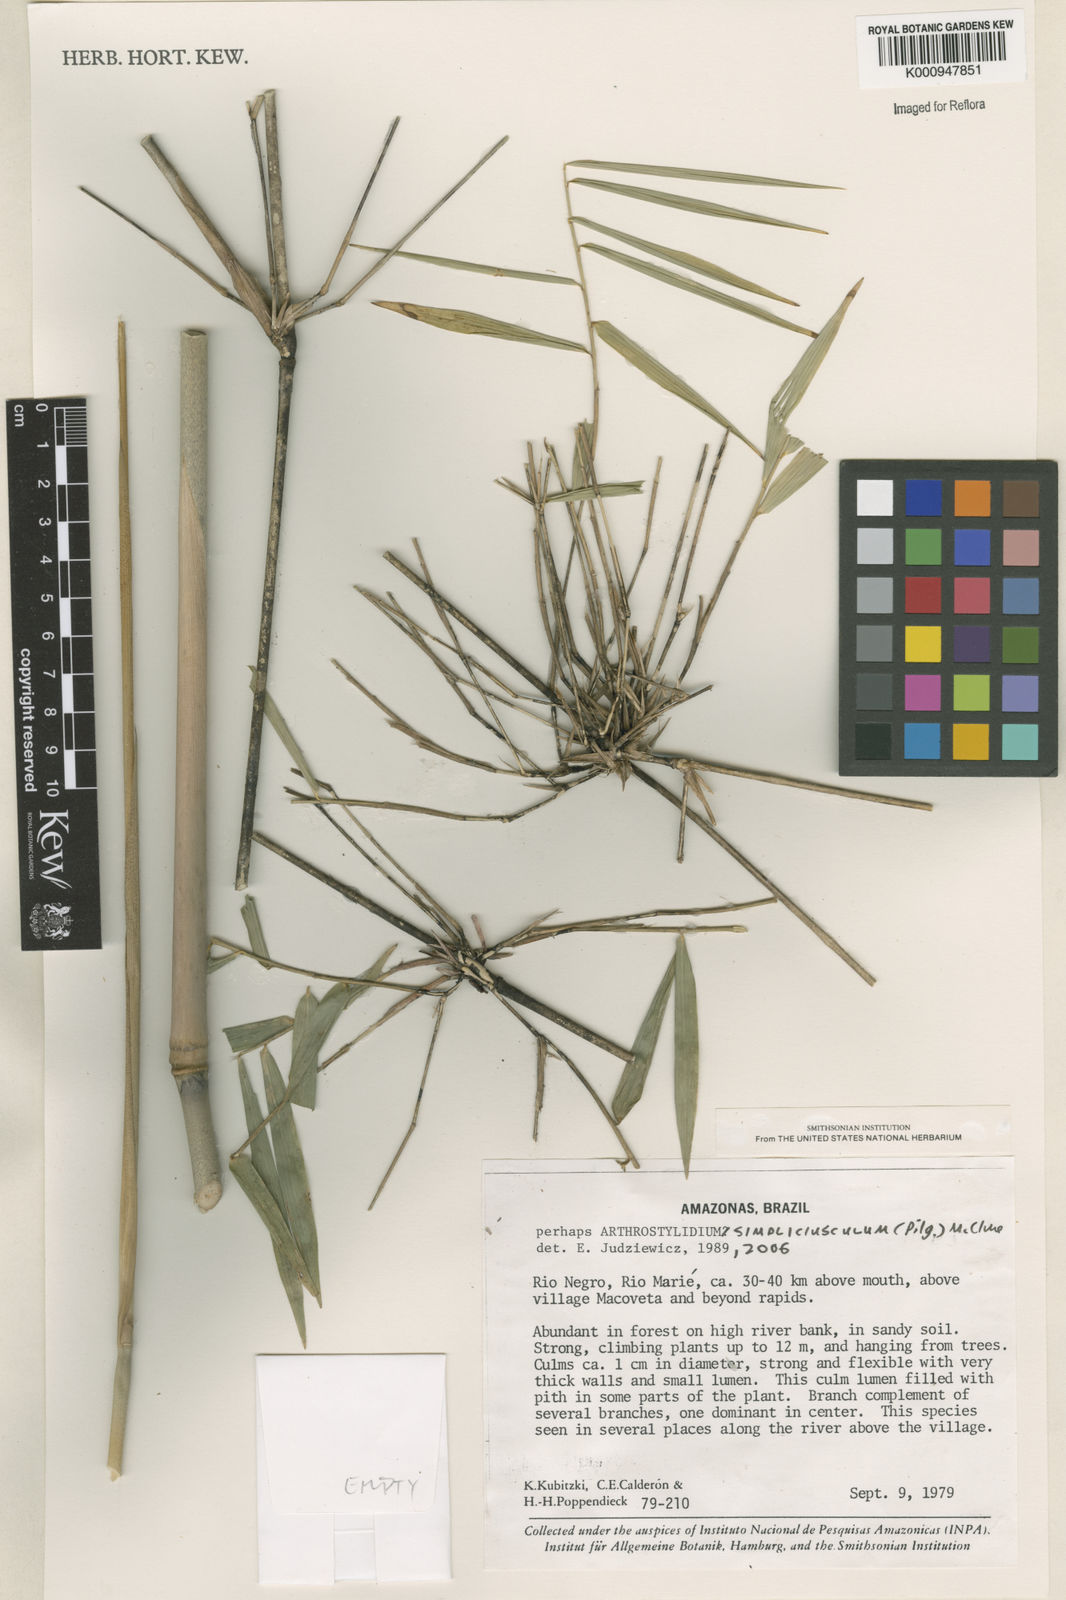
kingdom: Plantae
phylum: Tracheophyta
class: Liliopsida
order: Poales
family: Poaceae
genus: Arthrostylidium
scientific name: Arthrostylidium simpliciusculum
